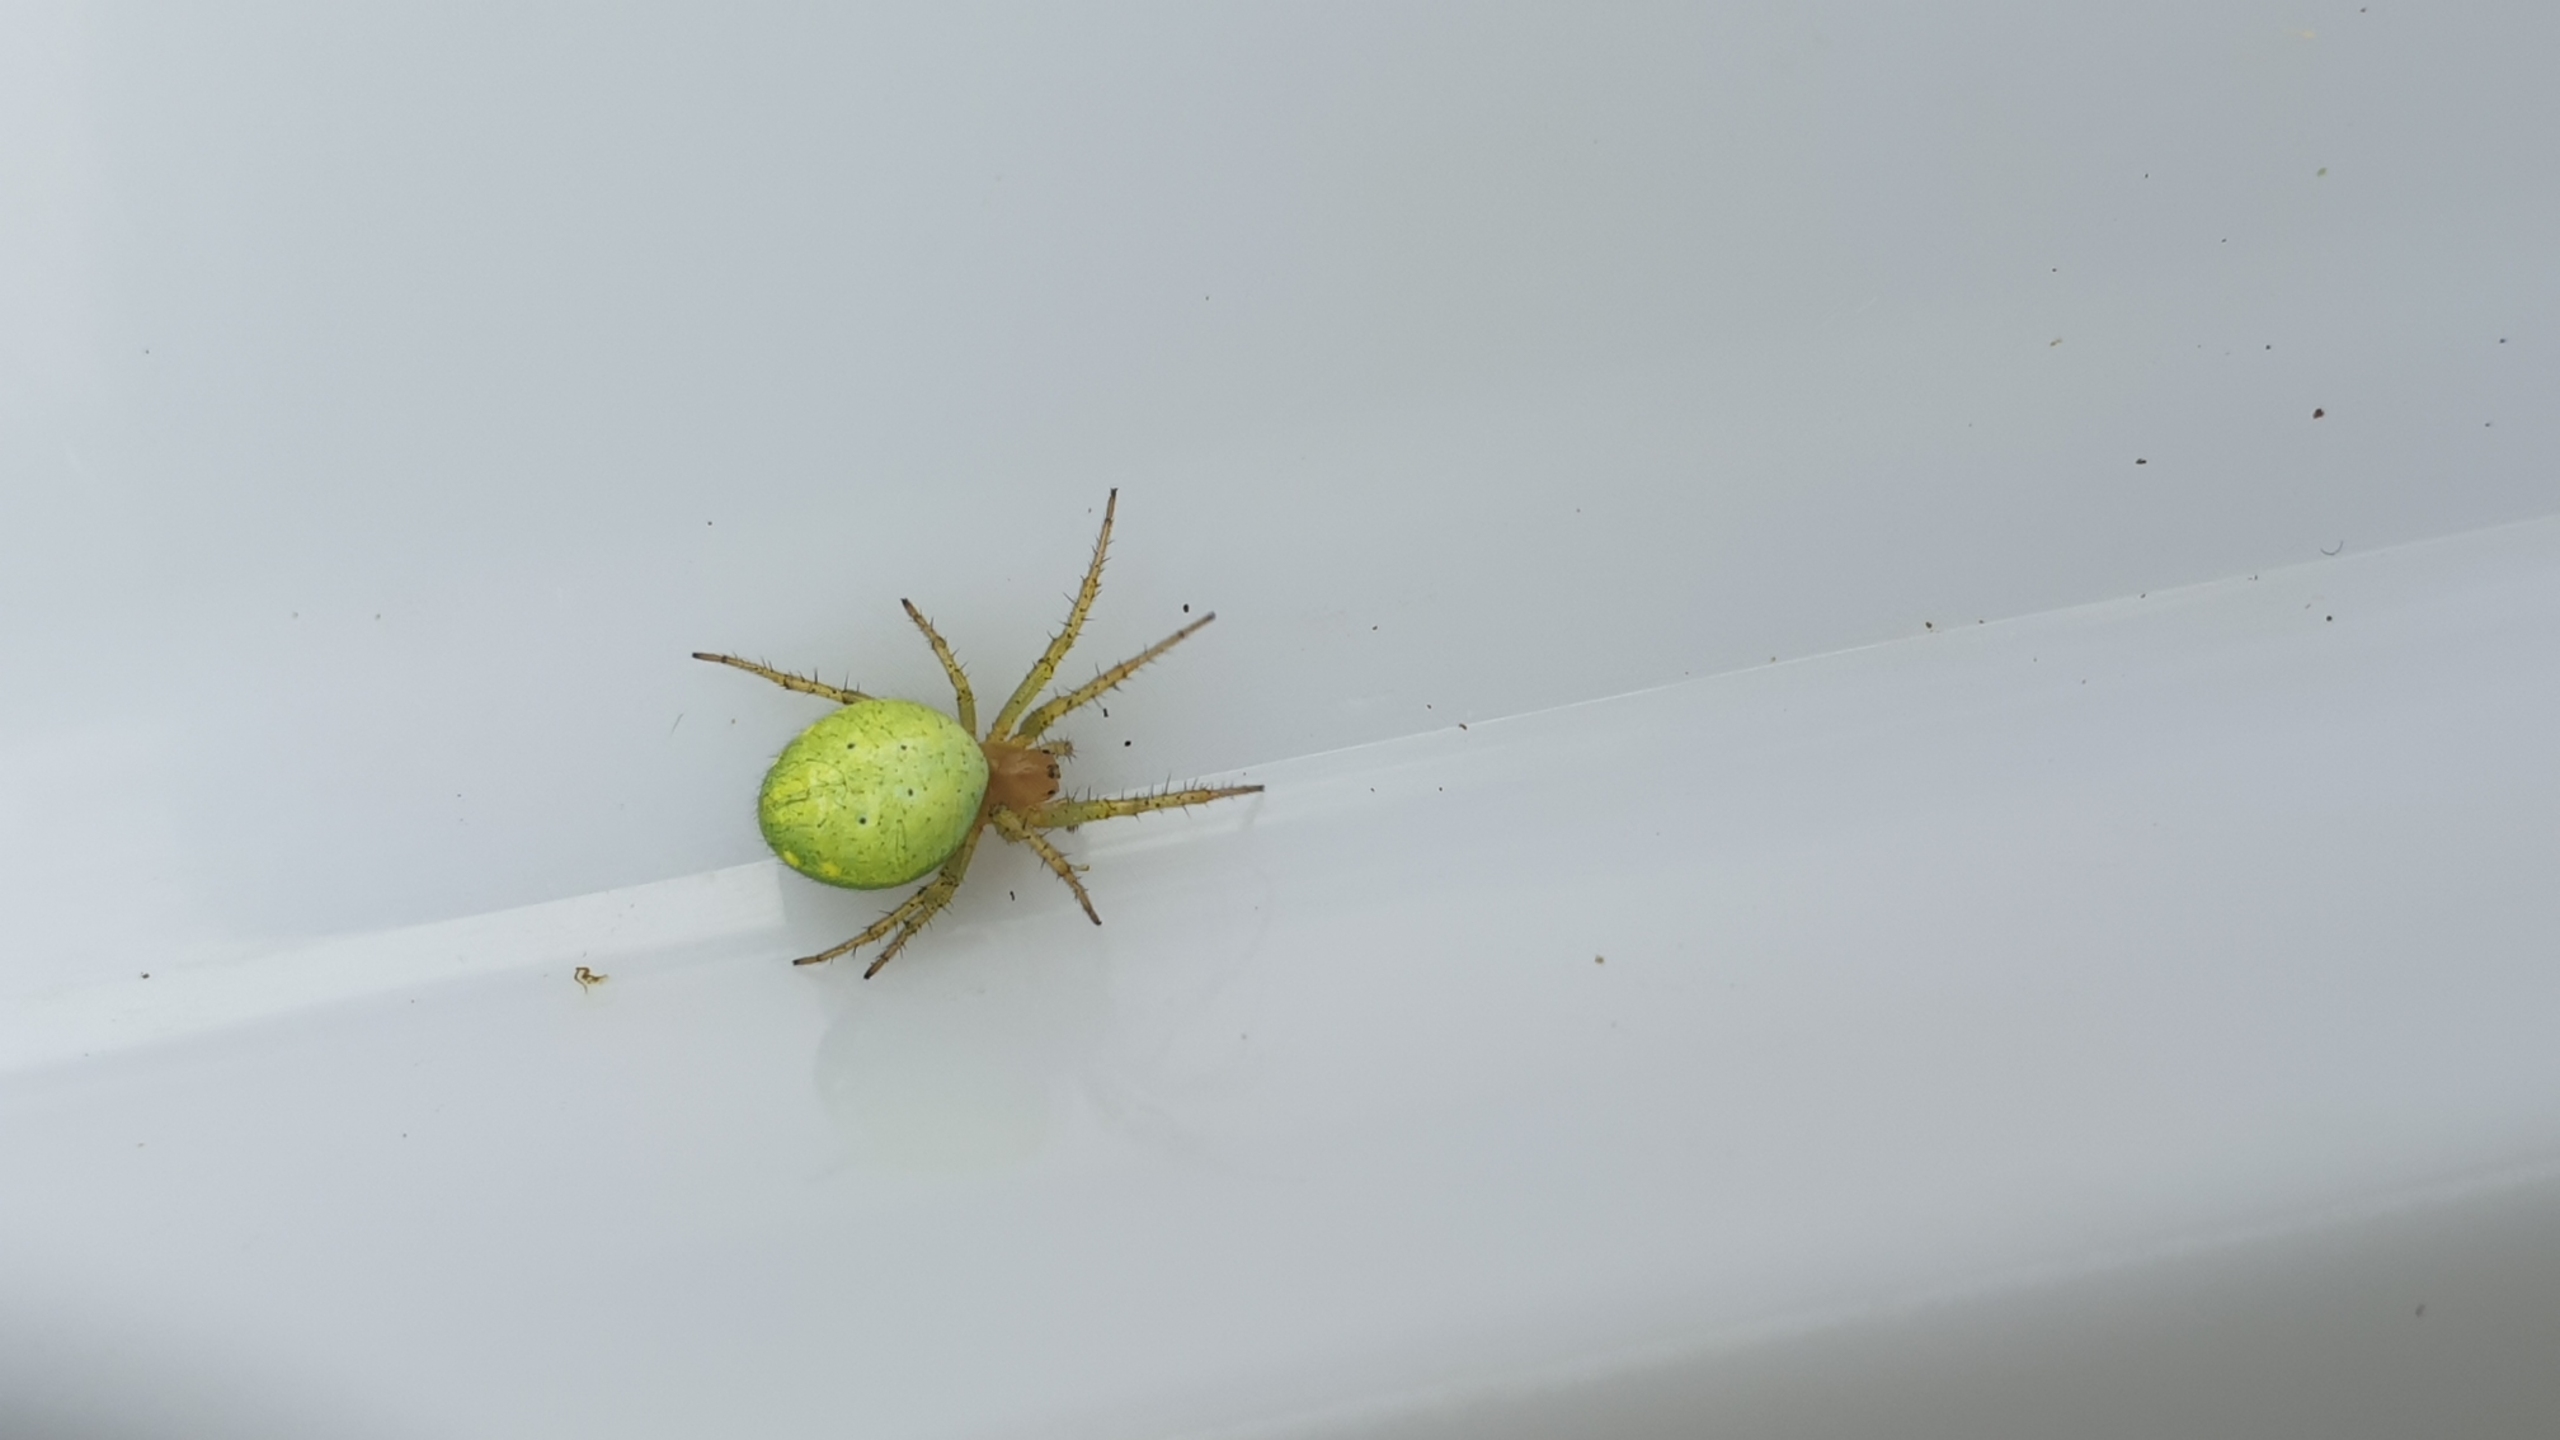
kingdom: Animalia
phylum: Arthropoda
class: Arachnida
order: Araneae
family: Araneidae
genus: Araniella
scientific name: Araniella
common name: Agurkeedderkopslægten
